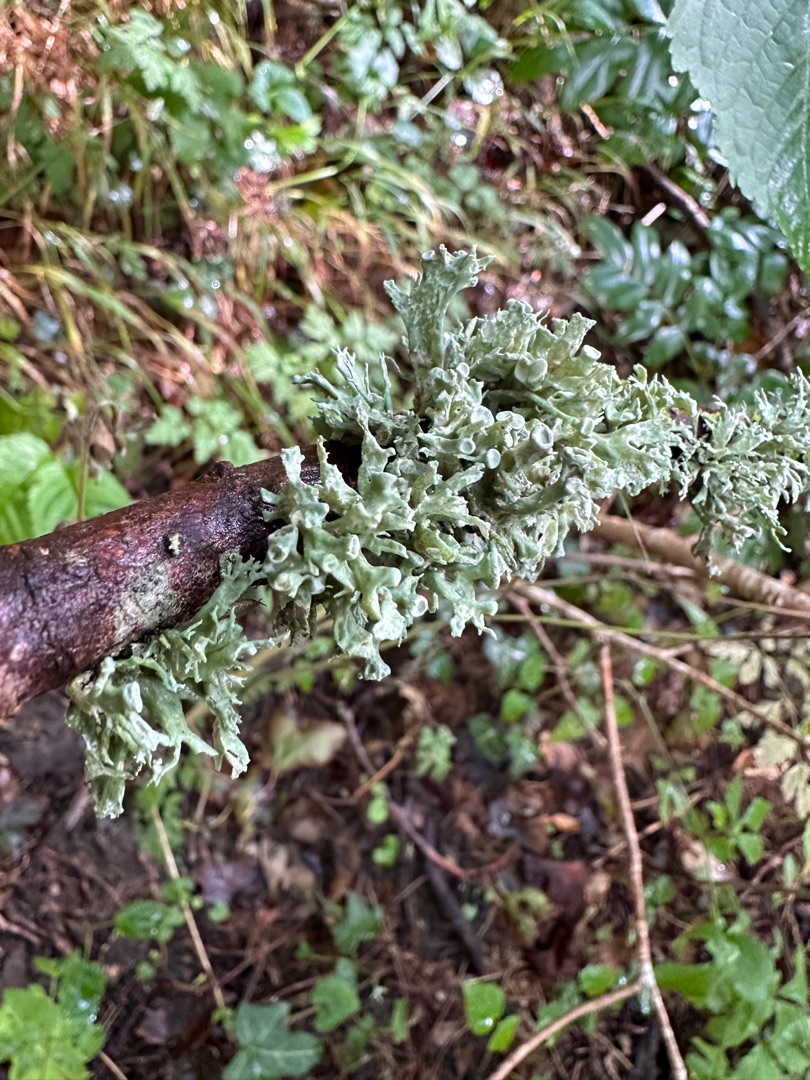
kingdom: Fungi
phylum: Ascomycota
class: Lecanoromycetes
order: Lecanorales
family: Ramalinaceae
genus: Ramalina
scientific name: Ramalina fastigiata
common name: Tue-grenlav
